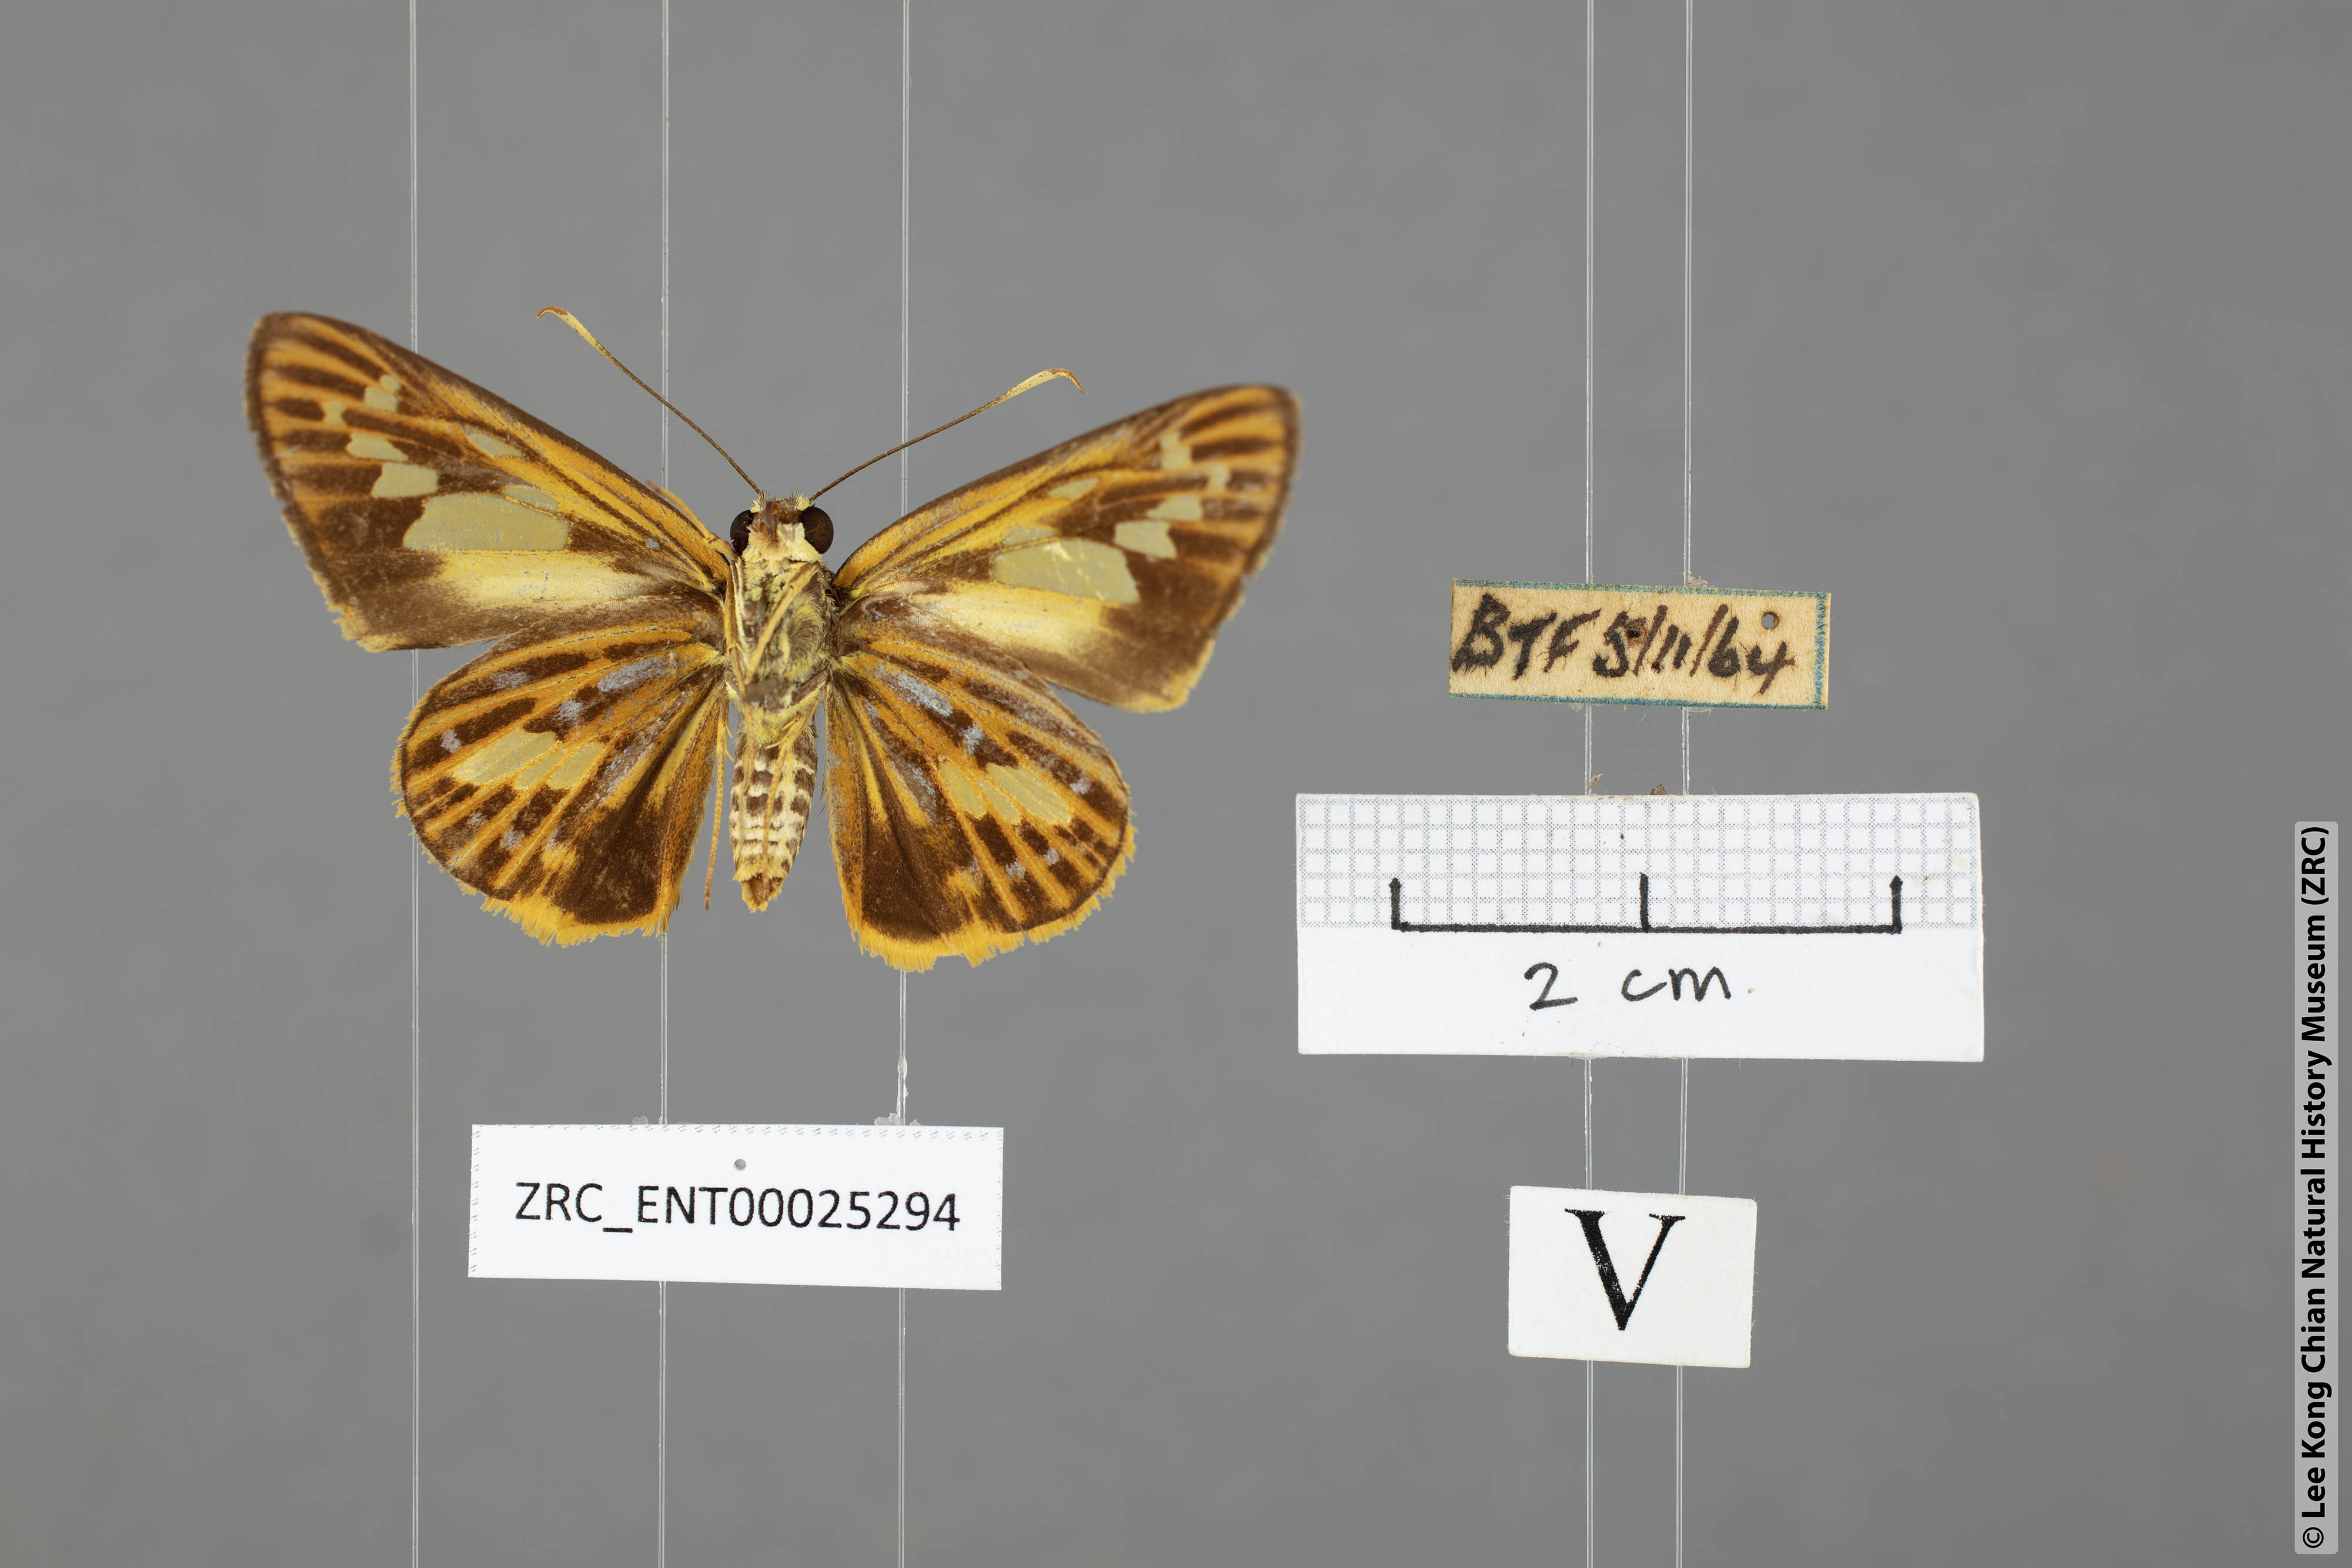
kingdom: Animalia
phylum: Arthropoda
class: Insecta
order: Lepidoptera
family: Hesperiidae
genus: Pyroneura
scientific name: Pyroneura
